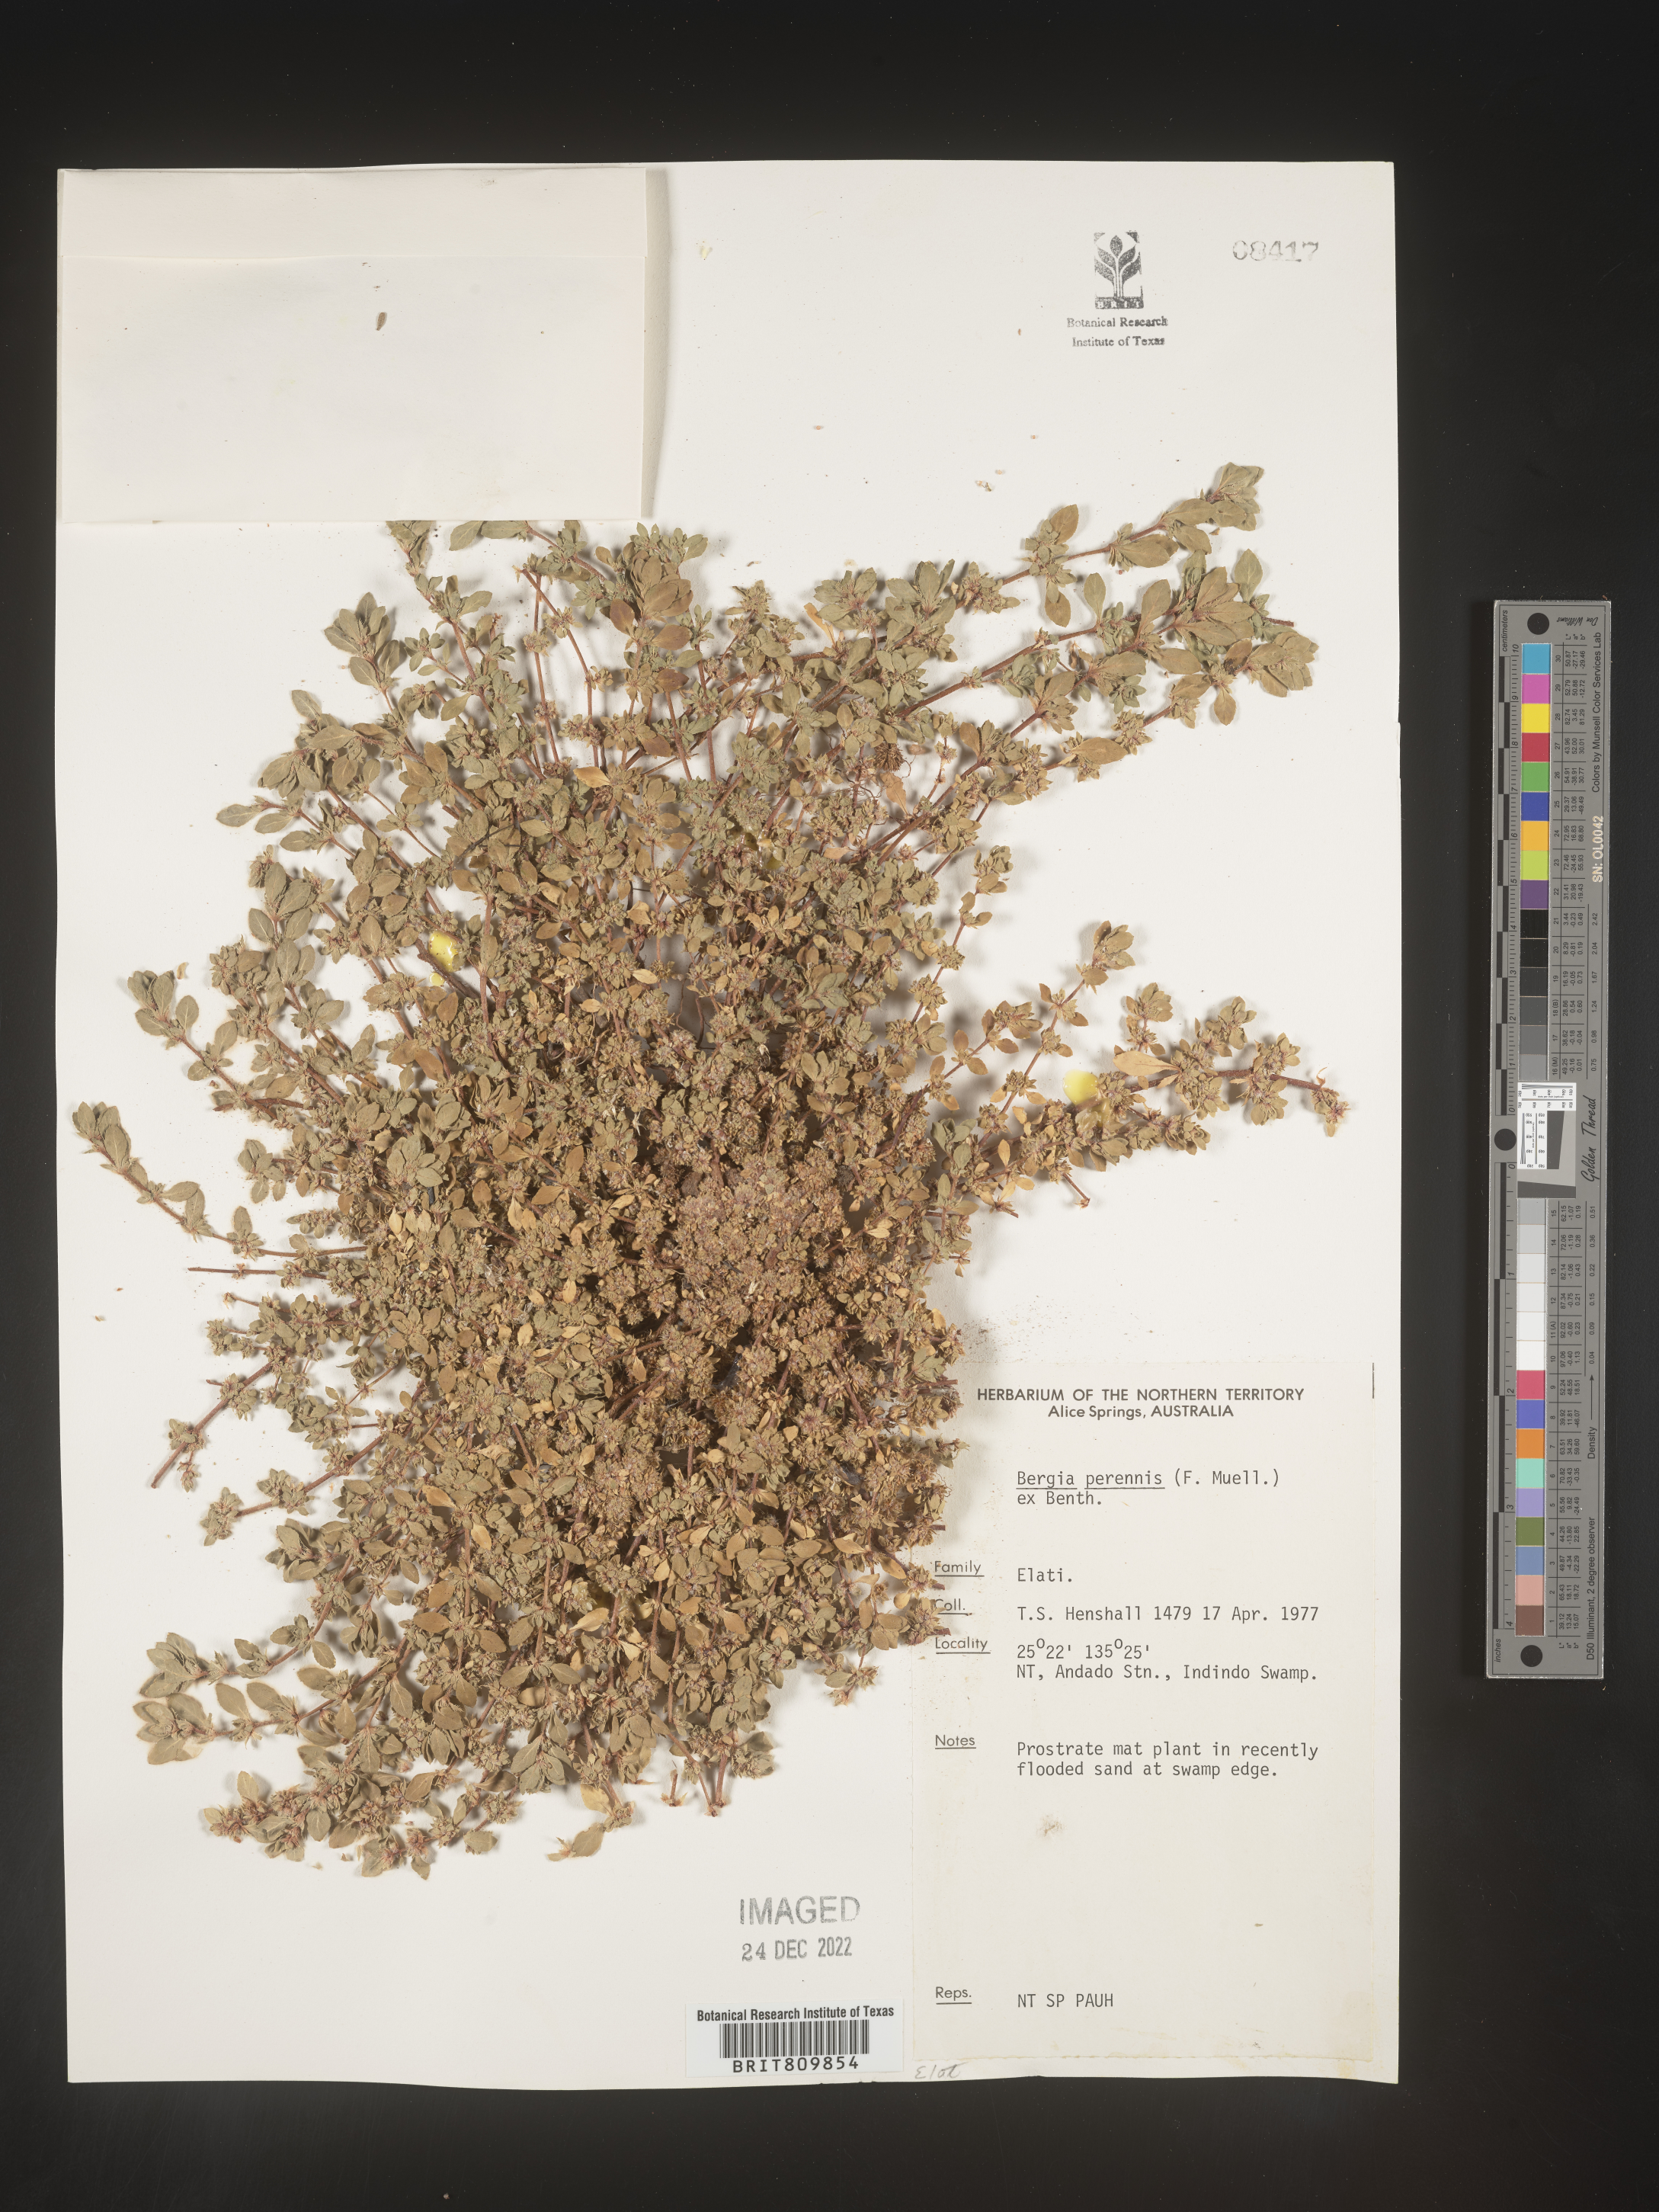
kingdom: Plantae
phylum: Tracheophyta
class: Magnoliopsida
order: Malpighiales
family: Elatinaceae
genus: Bergia
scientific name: Bergia
